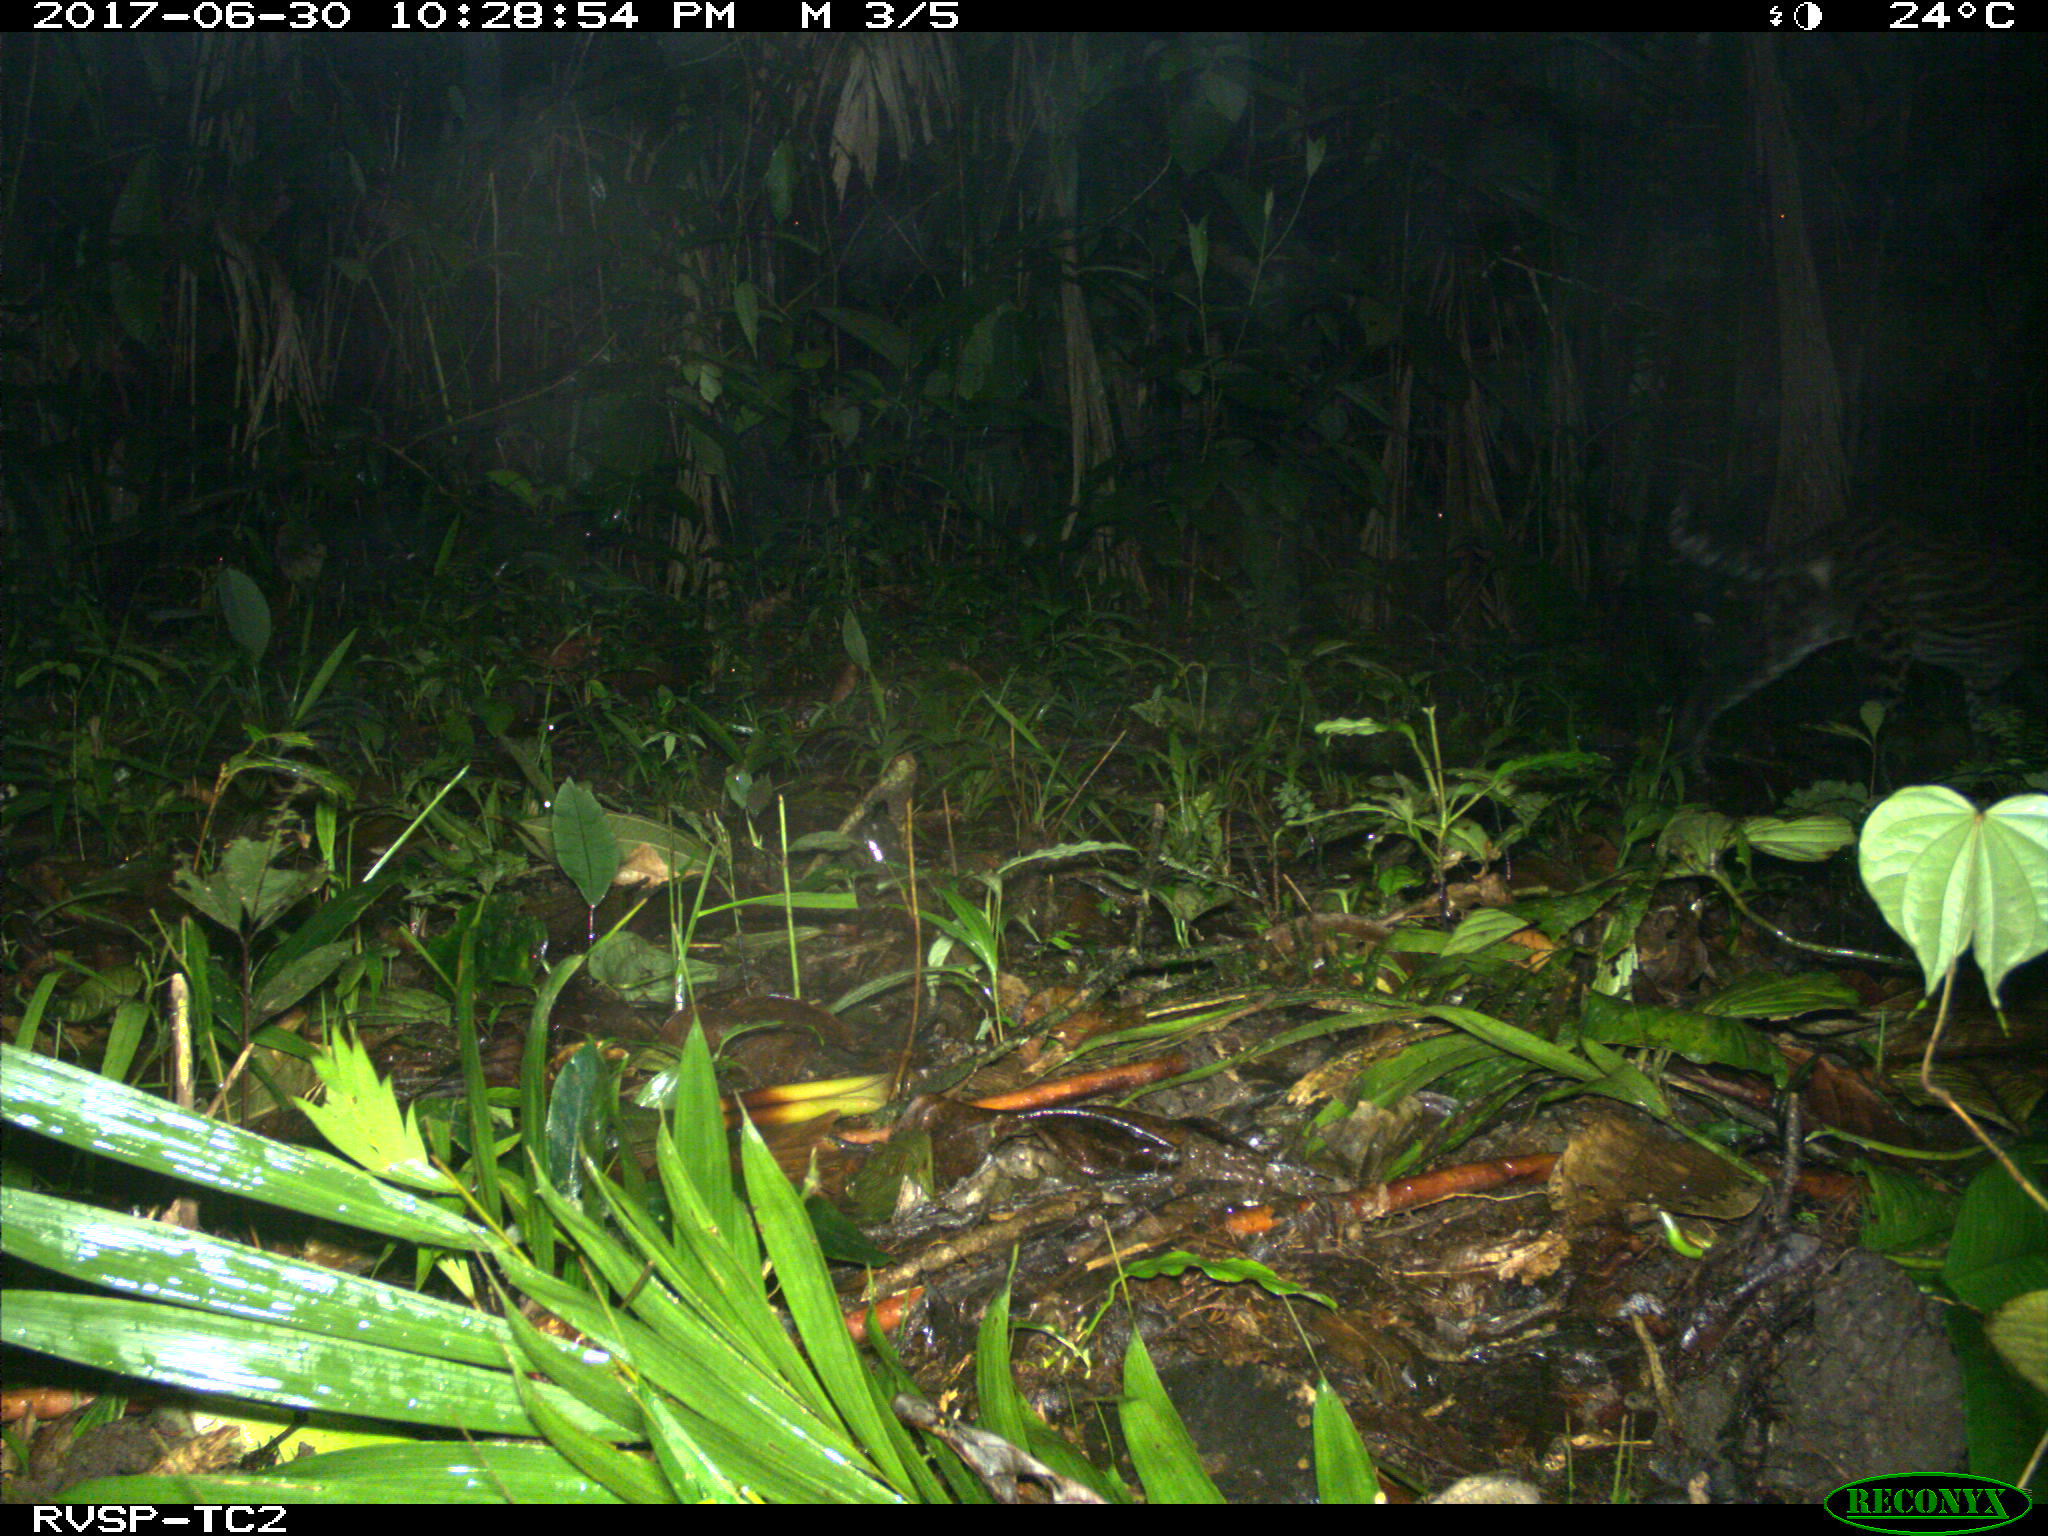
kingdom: Animalia
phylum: Chordata
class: Mammalia
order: Carnivora
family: Felidae
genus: Leopardus
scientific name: Leopardus pardalis
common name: Ocelot
